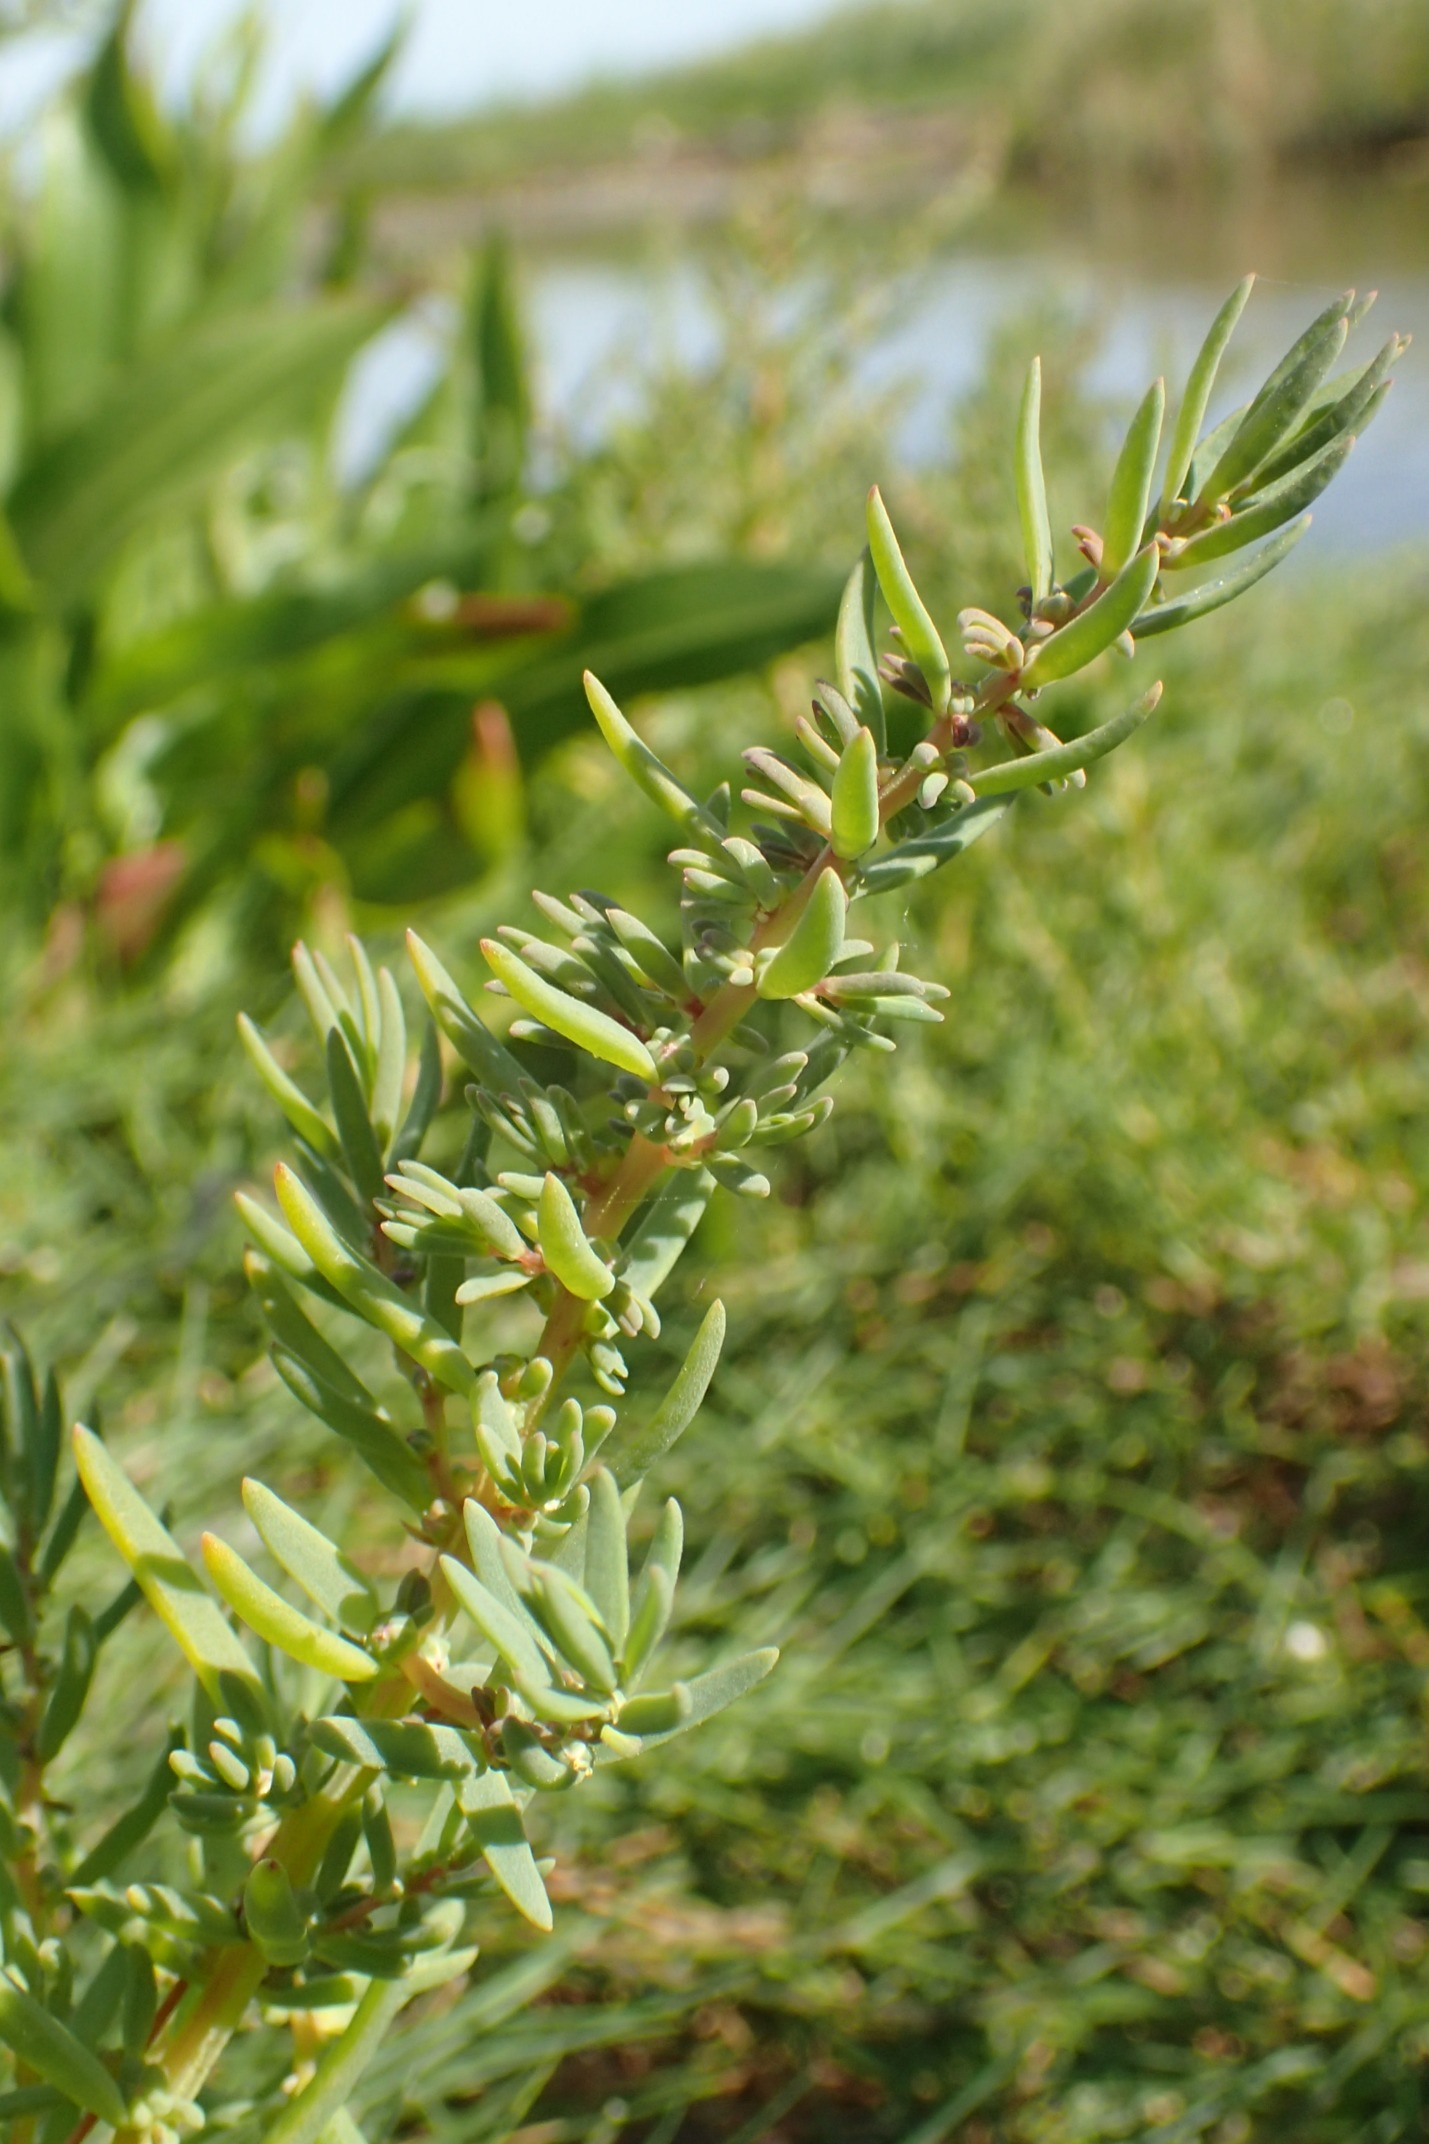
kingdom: Plantae
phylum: Tracheophyta
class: Magnoliopsida
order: Caryophyllales
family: Amaranthaceae
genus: Suaeda
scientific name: Suaeda maritima
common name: Strandgåsefod
